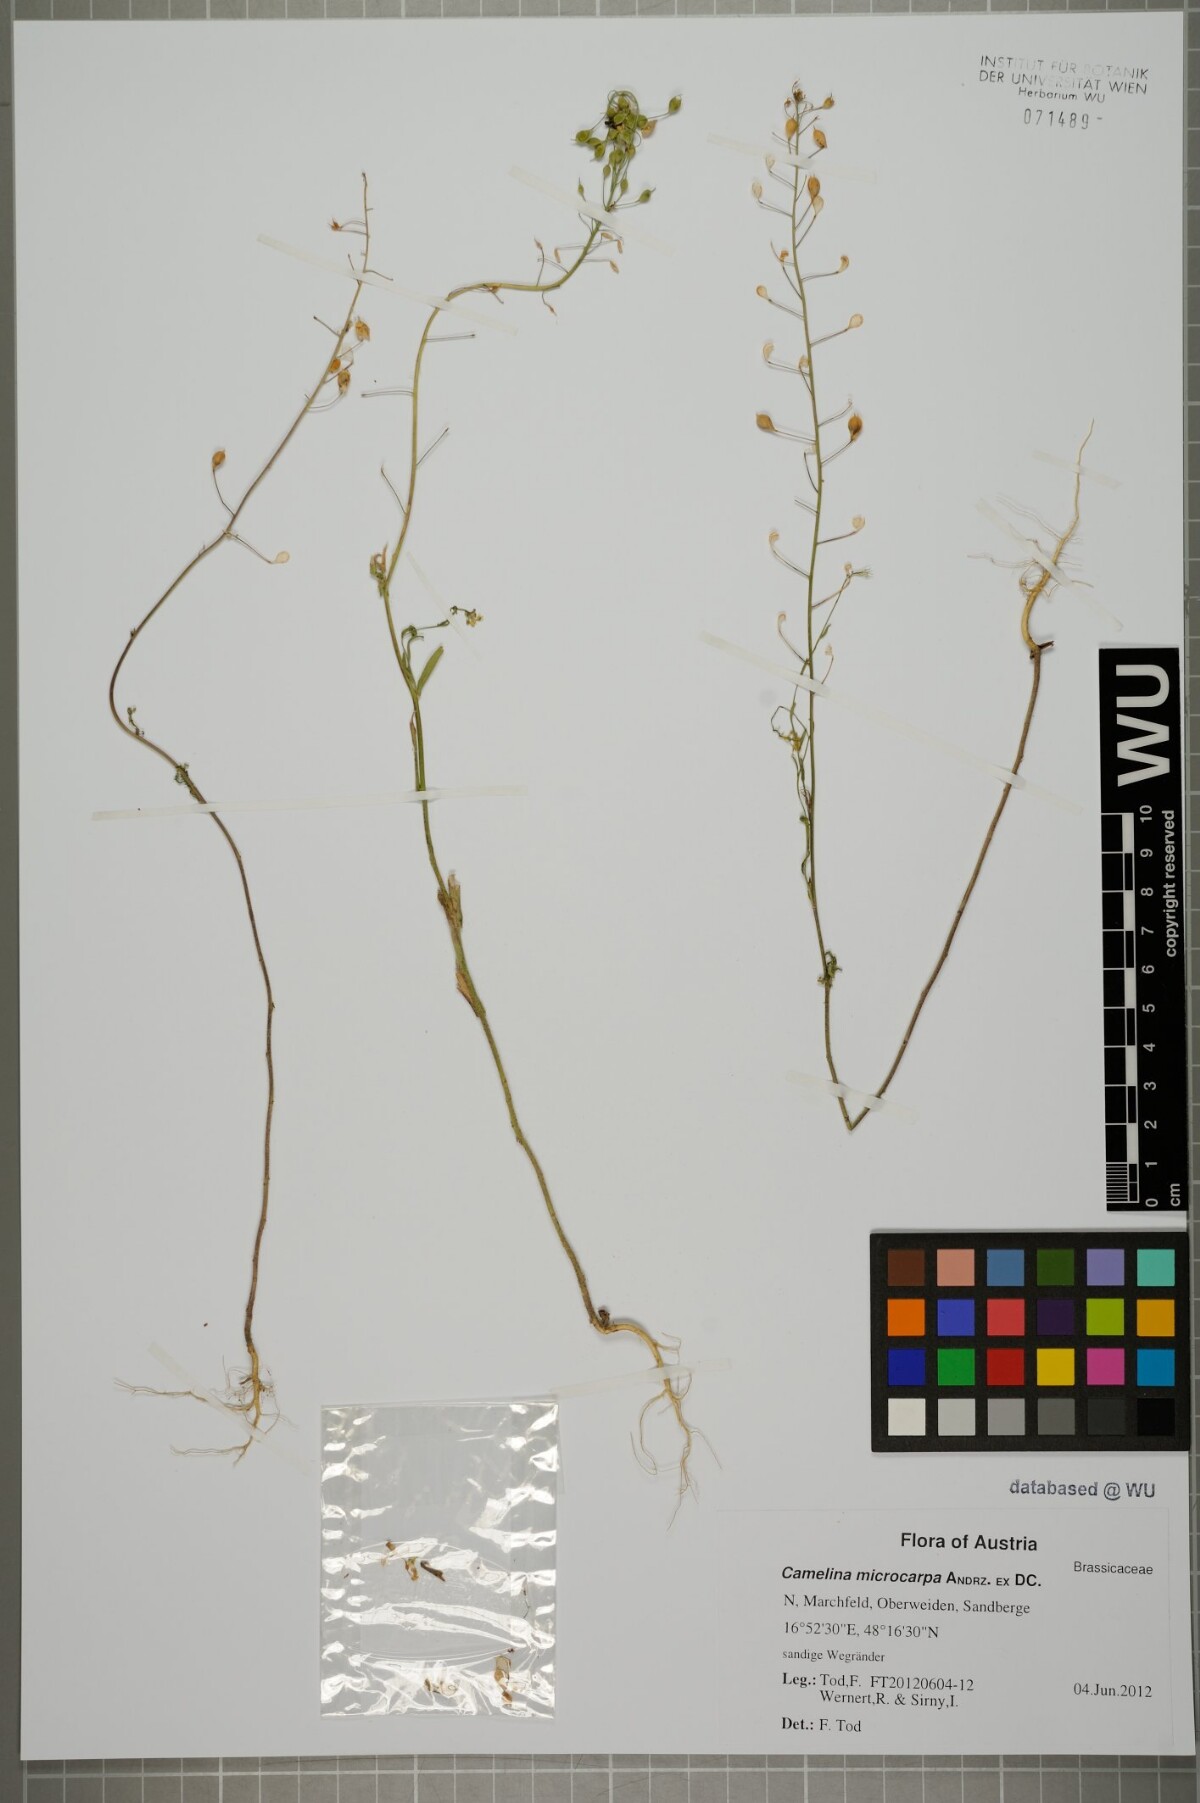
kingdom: Plantae
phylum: Tracheophyta
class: Magnoliopsida
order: Brassicales
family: Brassicaceae
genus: Camelina
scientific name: Camelina microcarpa
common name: Lesser gold-of-pleasure
